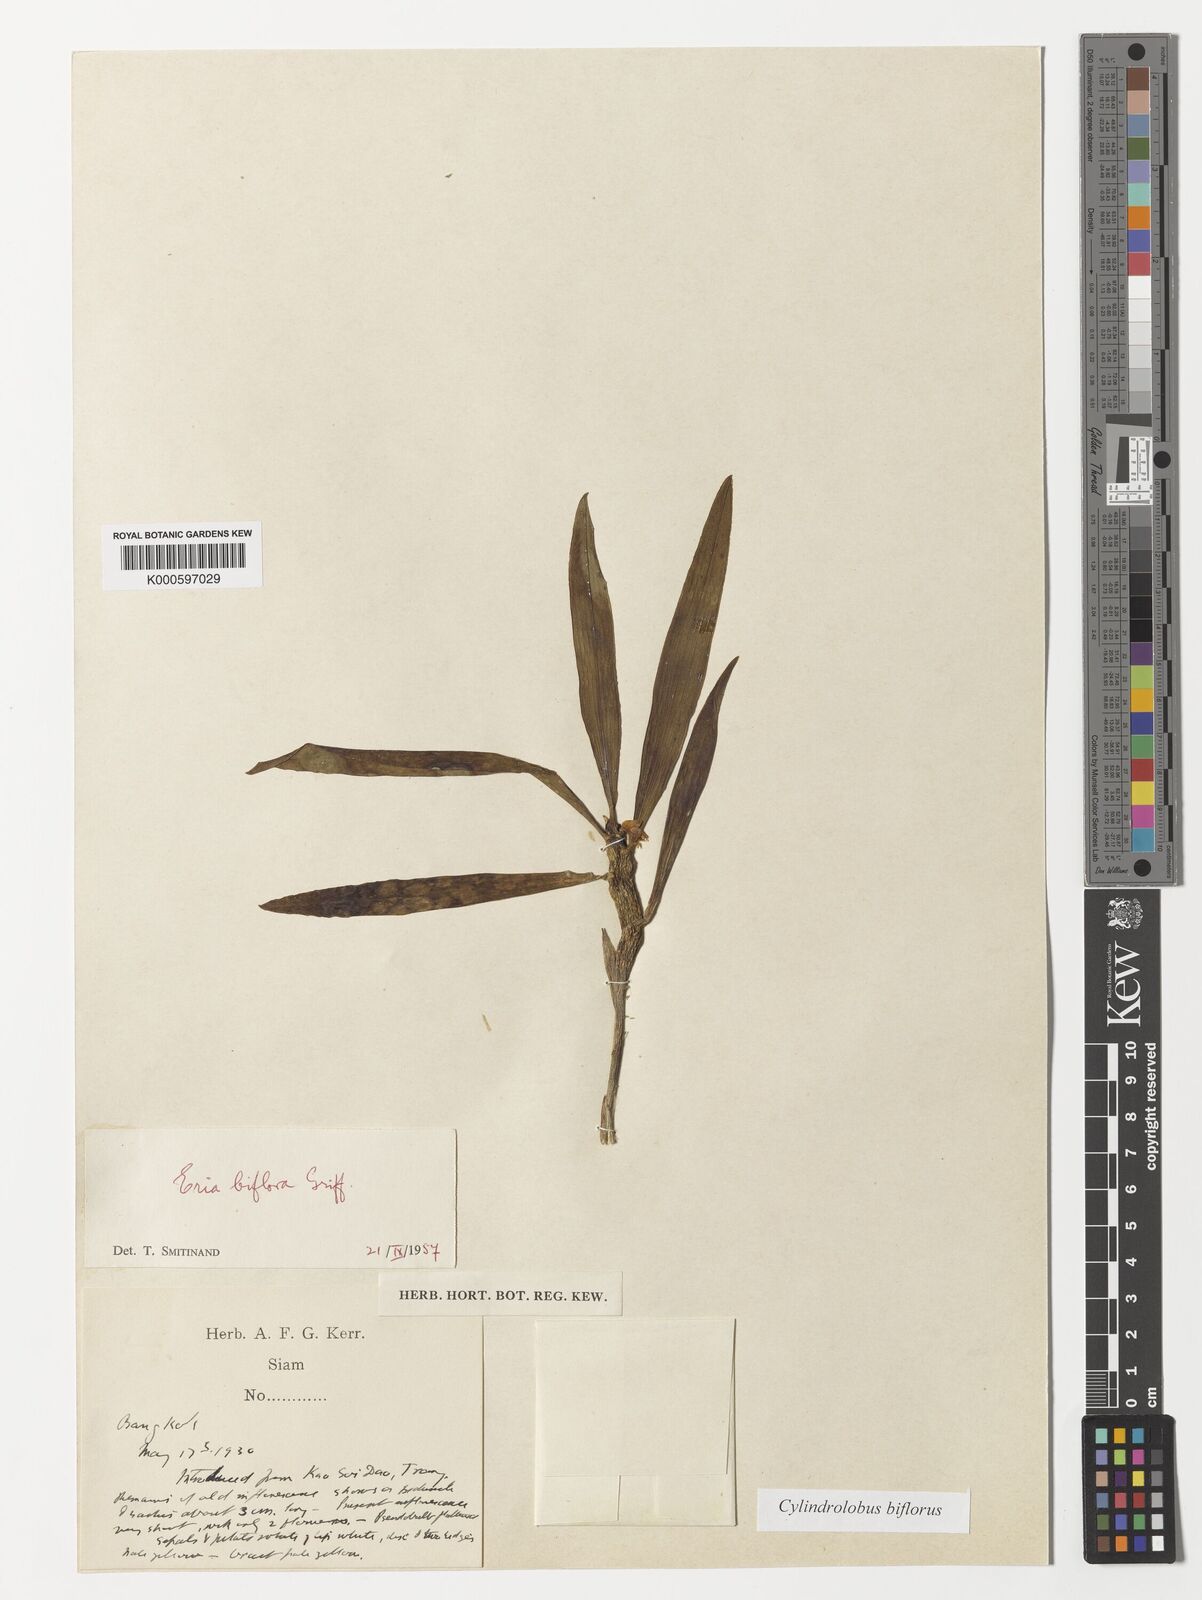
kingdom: Plantae
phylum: Tracheophyta
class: Liliopsida
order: Asparagales
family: Orchidaceae
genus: Cylindrolobus
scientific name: Cylindrolobus biflorus
